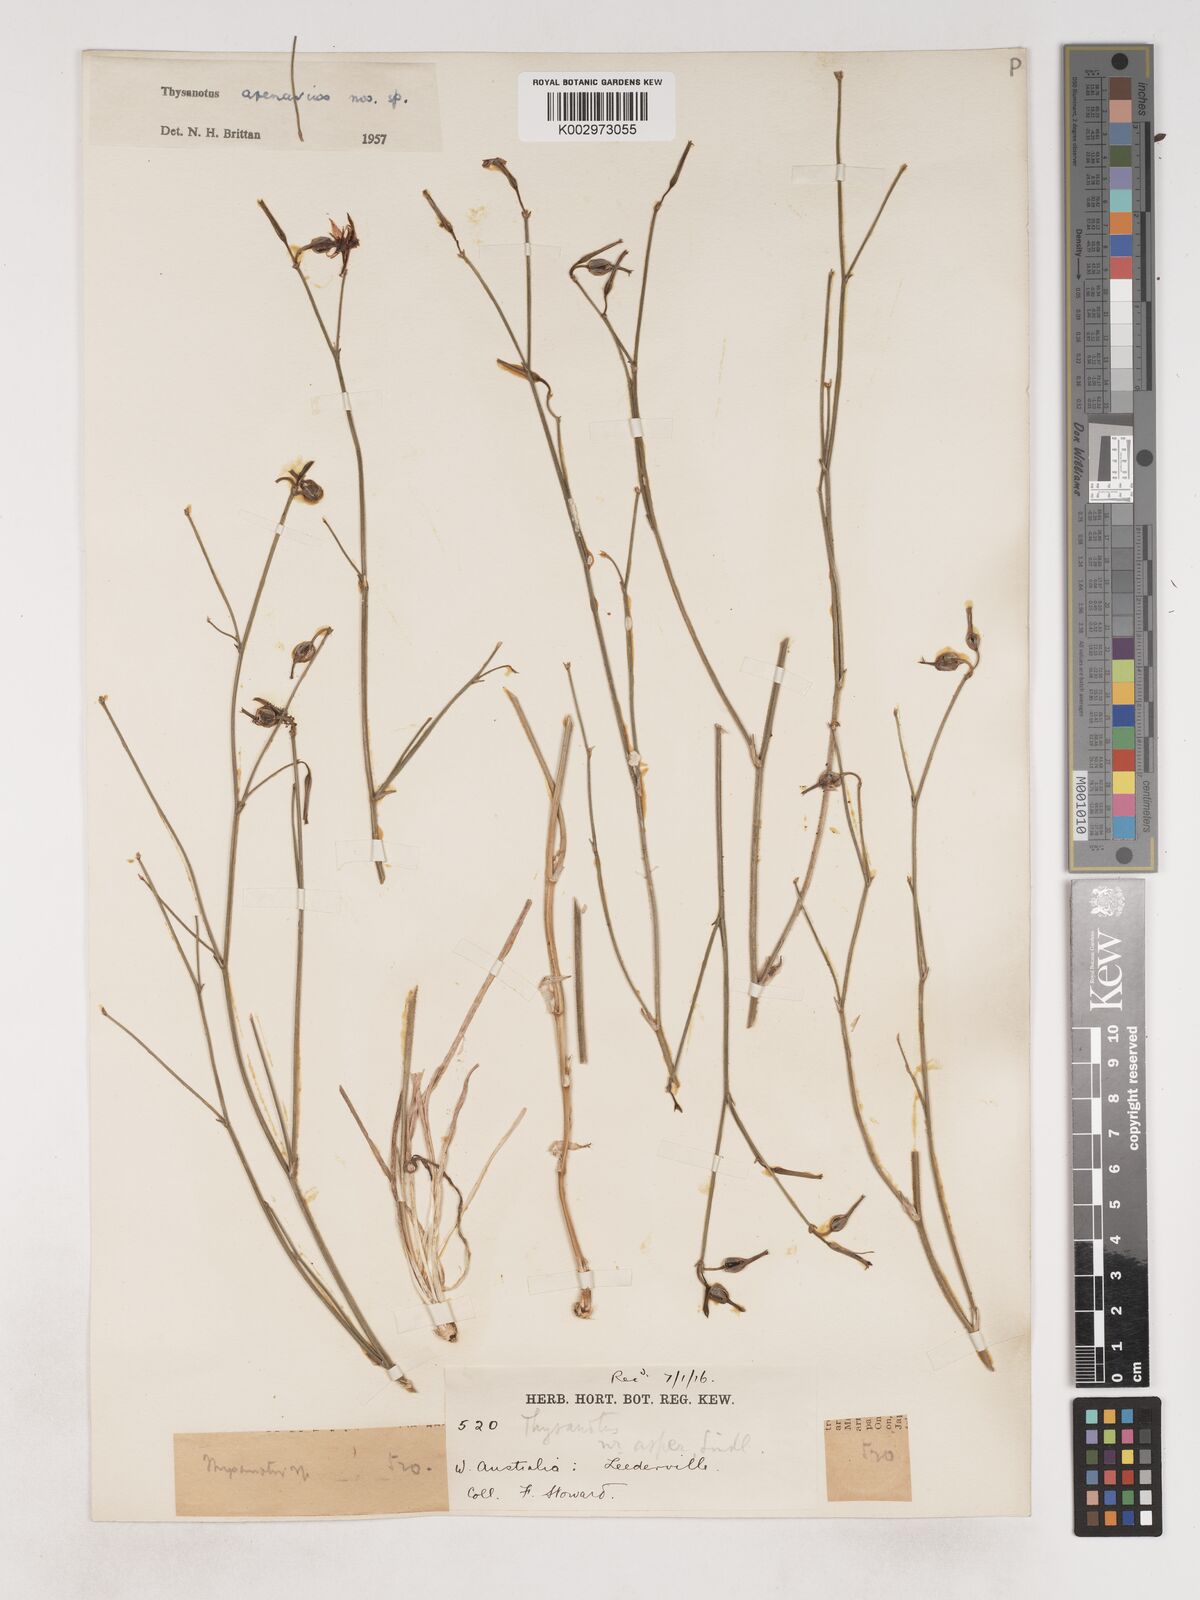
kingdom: Plantae
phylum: Tracheophyta
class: Liliopsida
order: Asparagales
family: Asparagaceae
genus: Thysanotus
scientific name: Thysanotus arenarius
